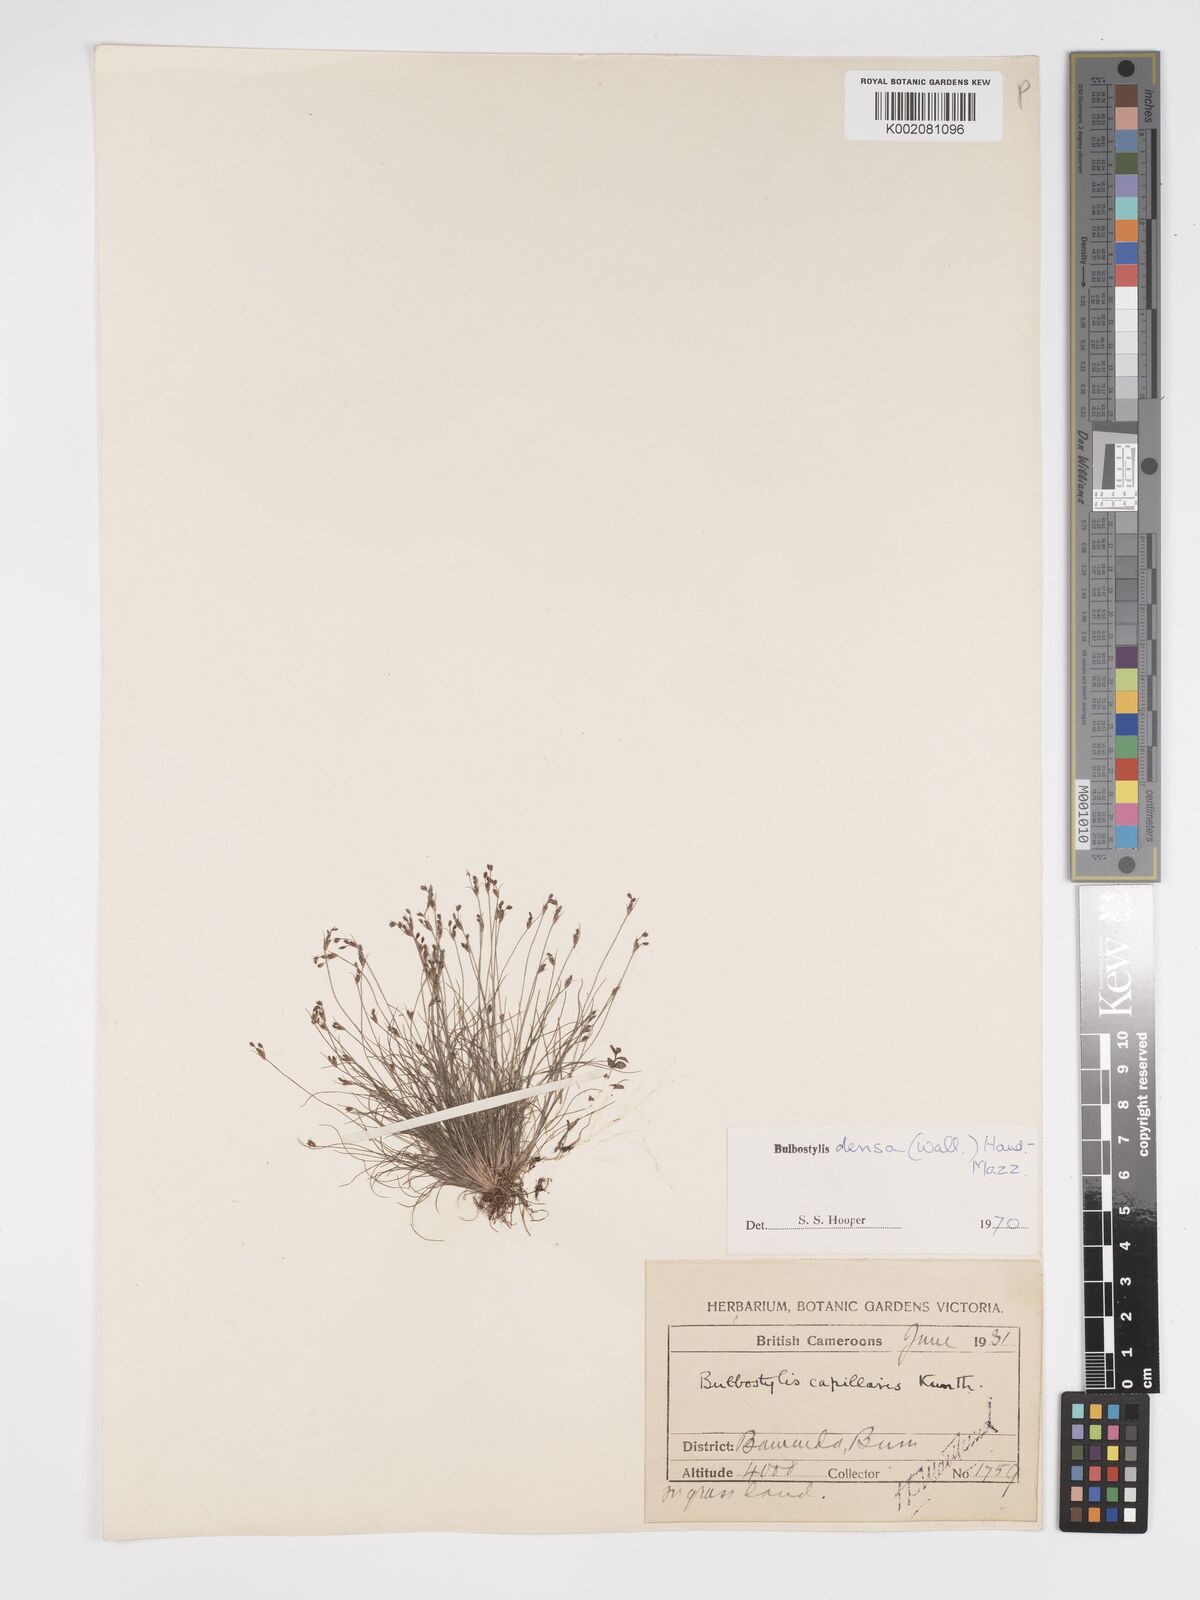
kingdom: Plantae
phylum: Tracheophyta
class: Liliopsida
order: Poales
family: Cyperaceae
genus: Bulbostylis
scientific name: Bulbostylis densa
